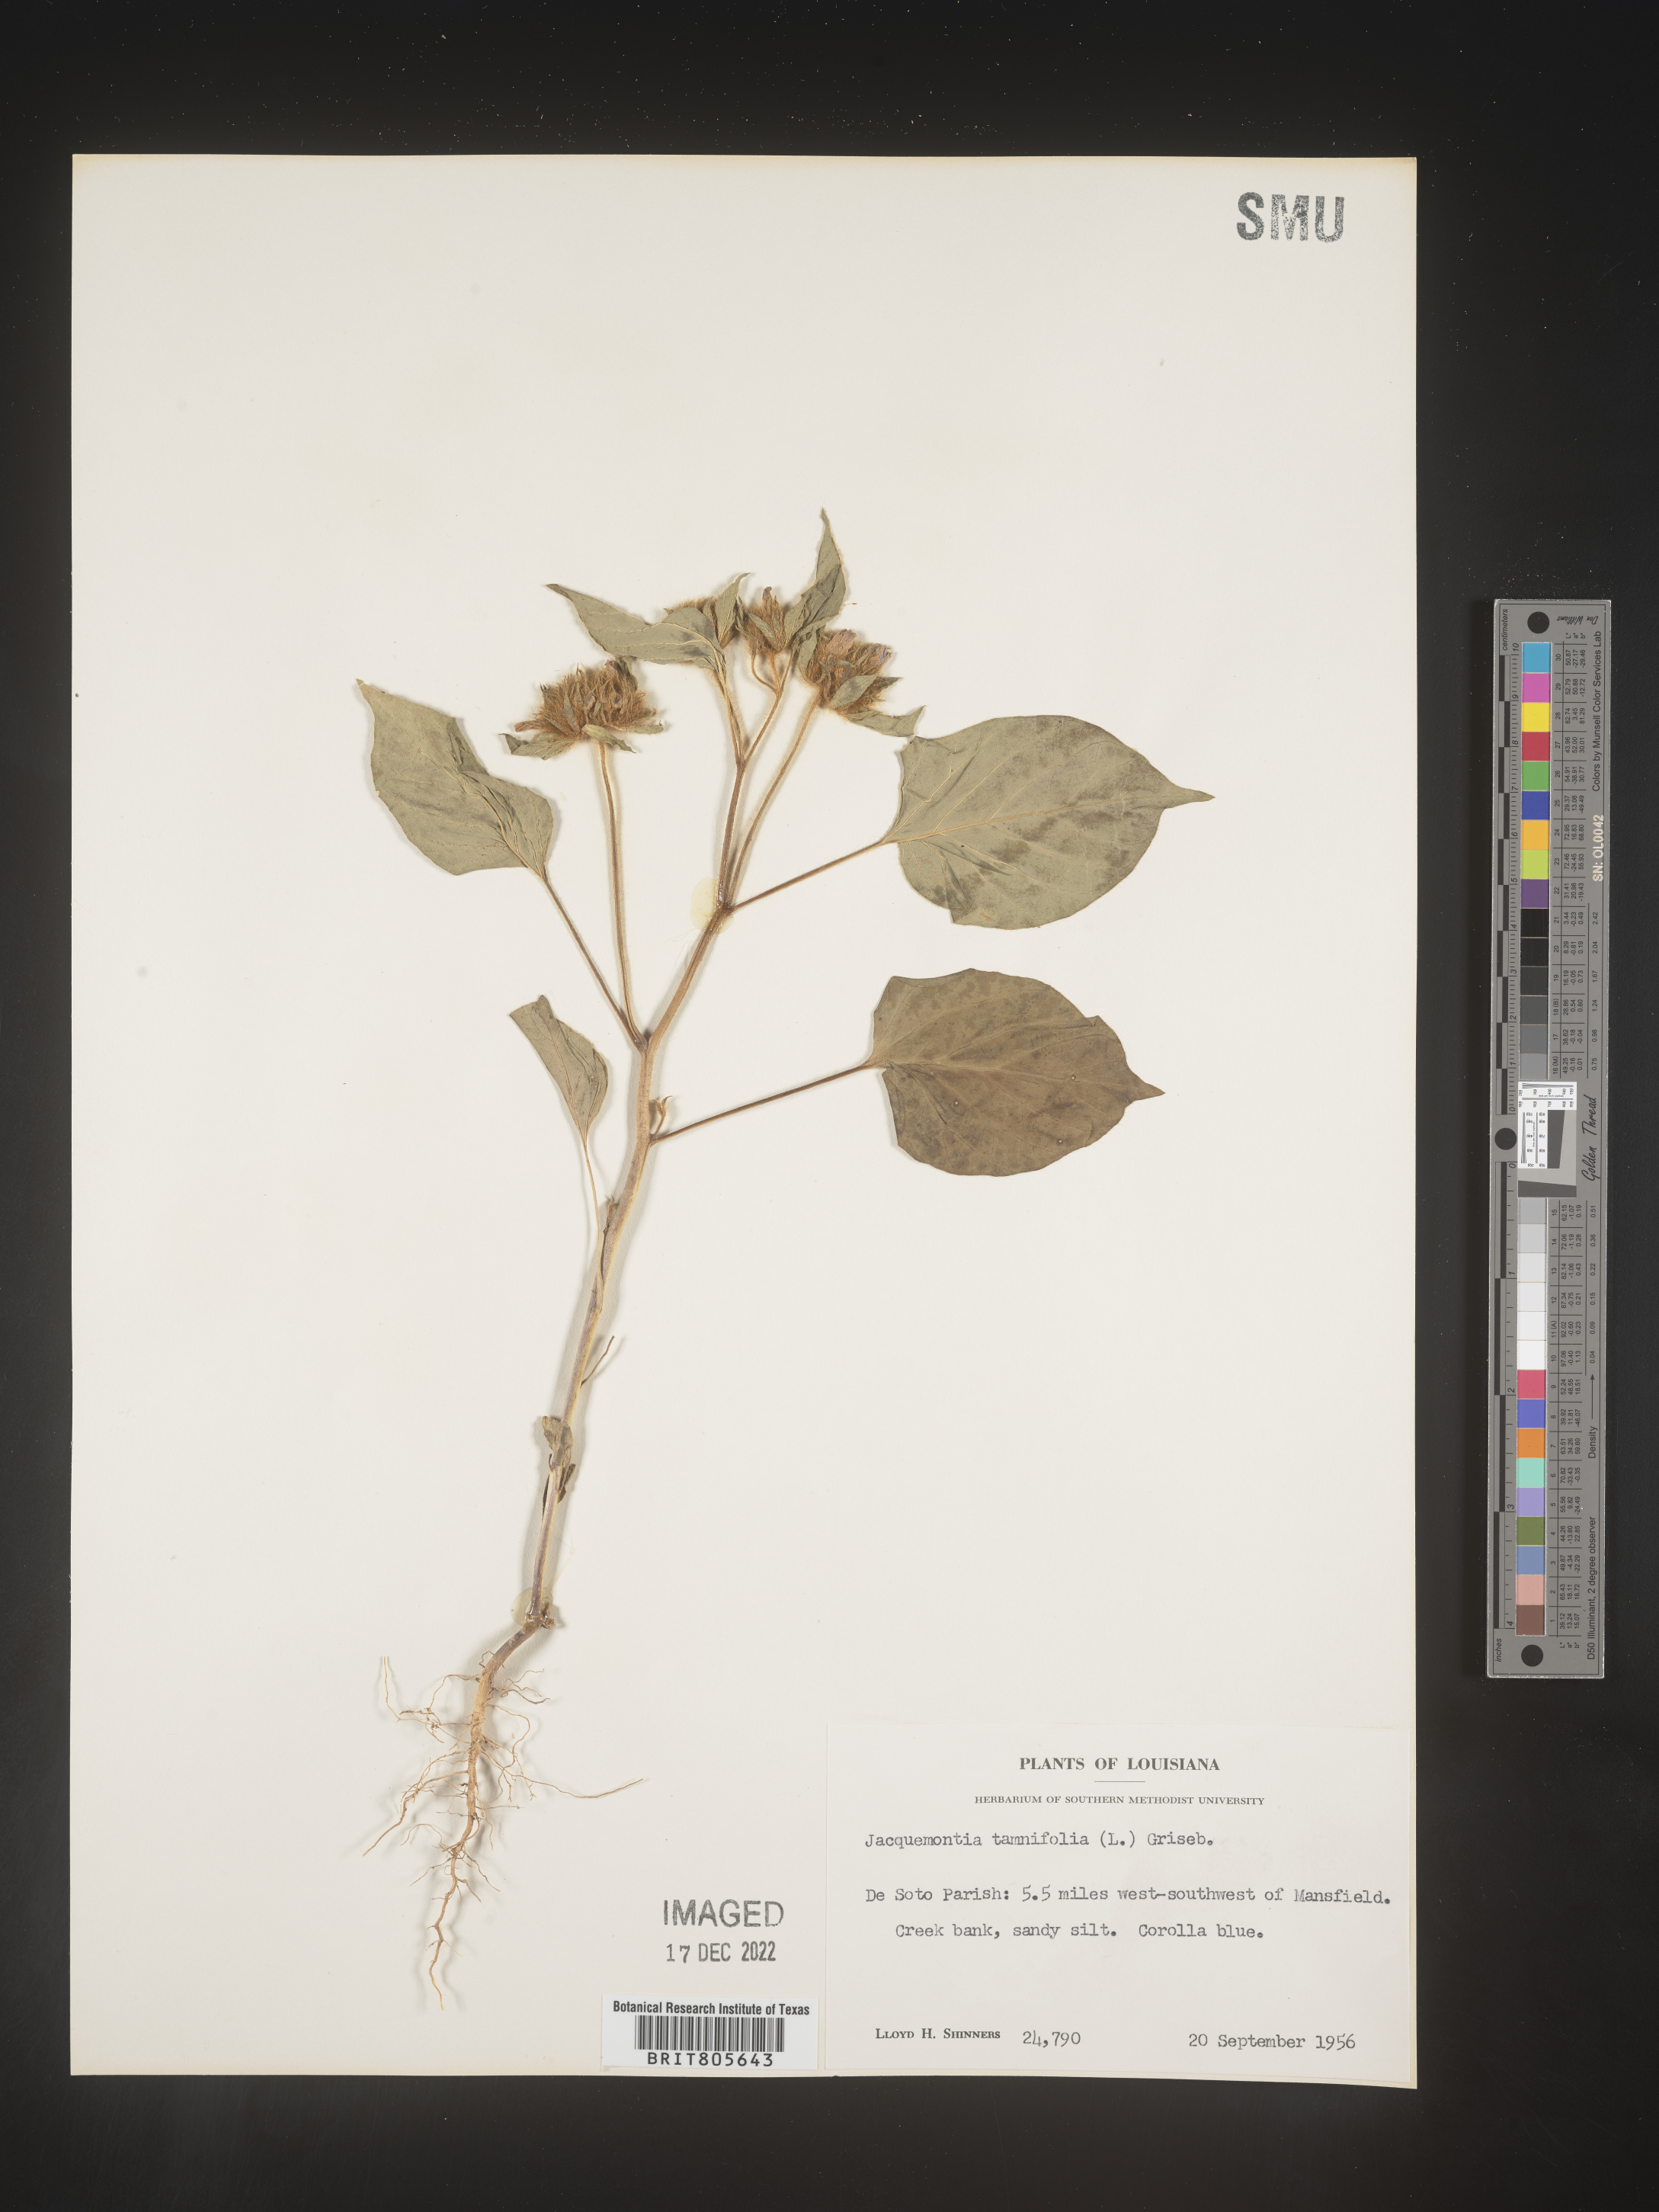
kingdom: Plantae
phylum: Tracheophyta
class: Magnoliopsida
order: Solanales
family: Convolvulaceae
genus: Jacquemontia
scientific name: Jacquemontia tamnifolia
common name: Hairy clustervine
